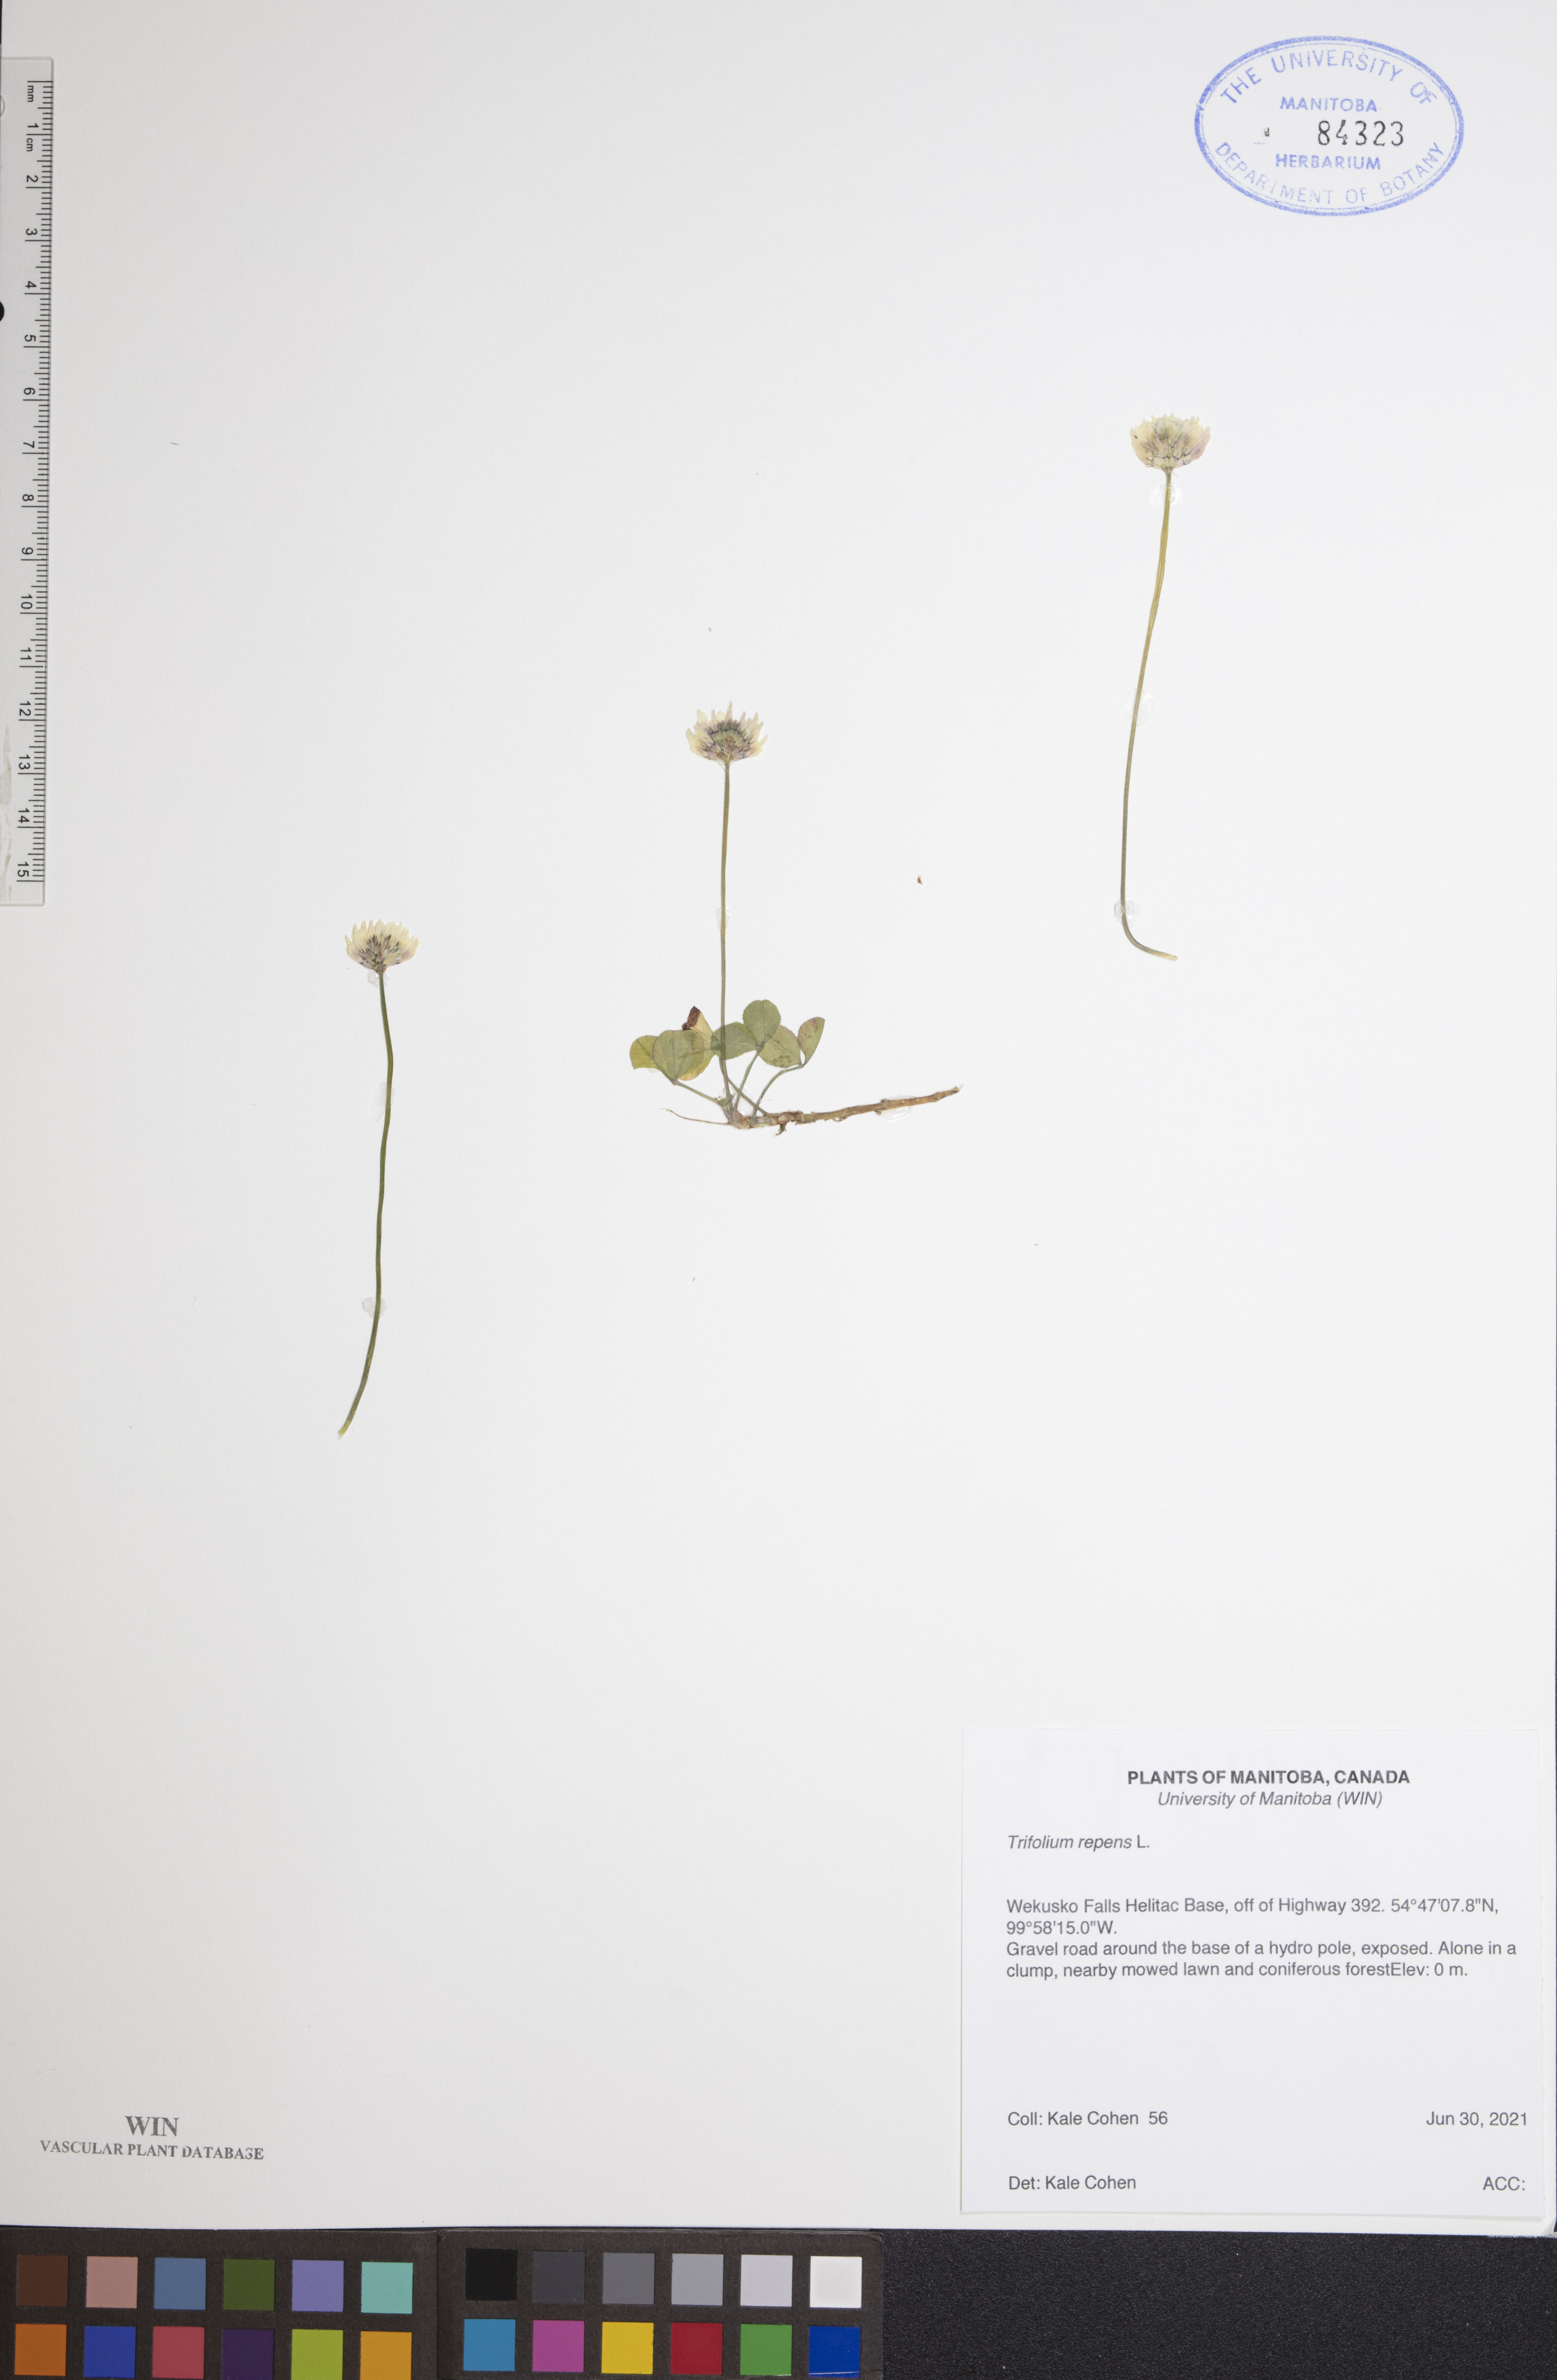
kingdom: Plantae
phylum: Tracheophyta
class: Magnoliopsida
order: Fabales
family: Fabaceae
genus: Trifolium
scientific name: Trifolium repens
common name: White clover
